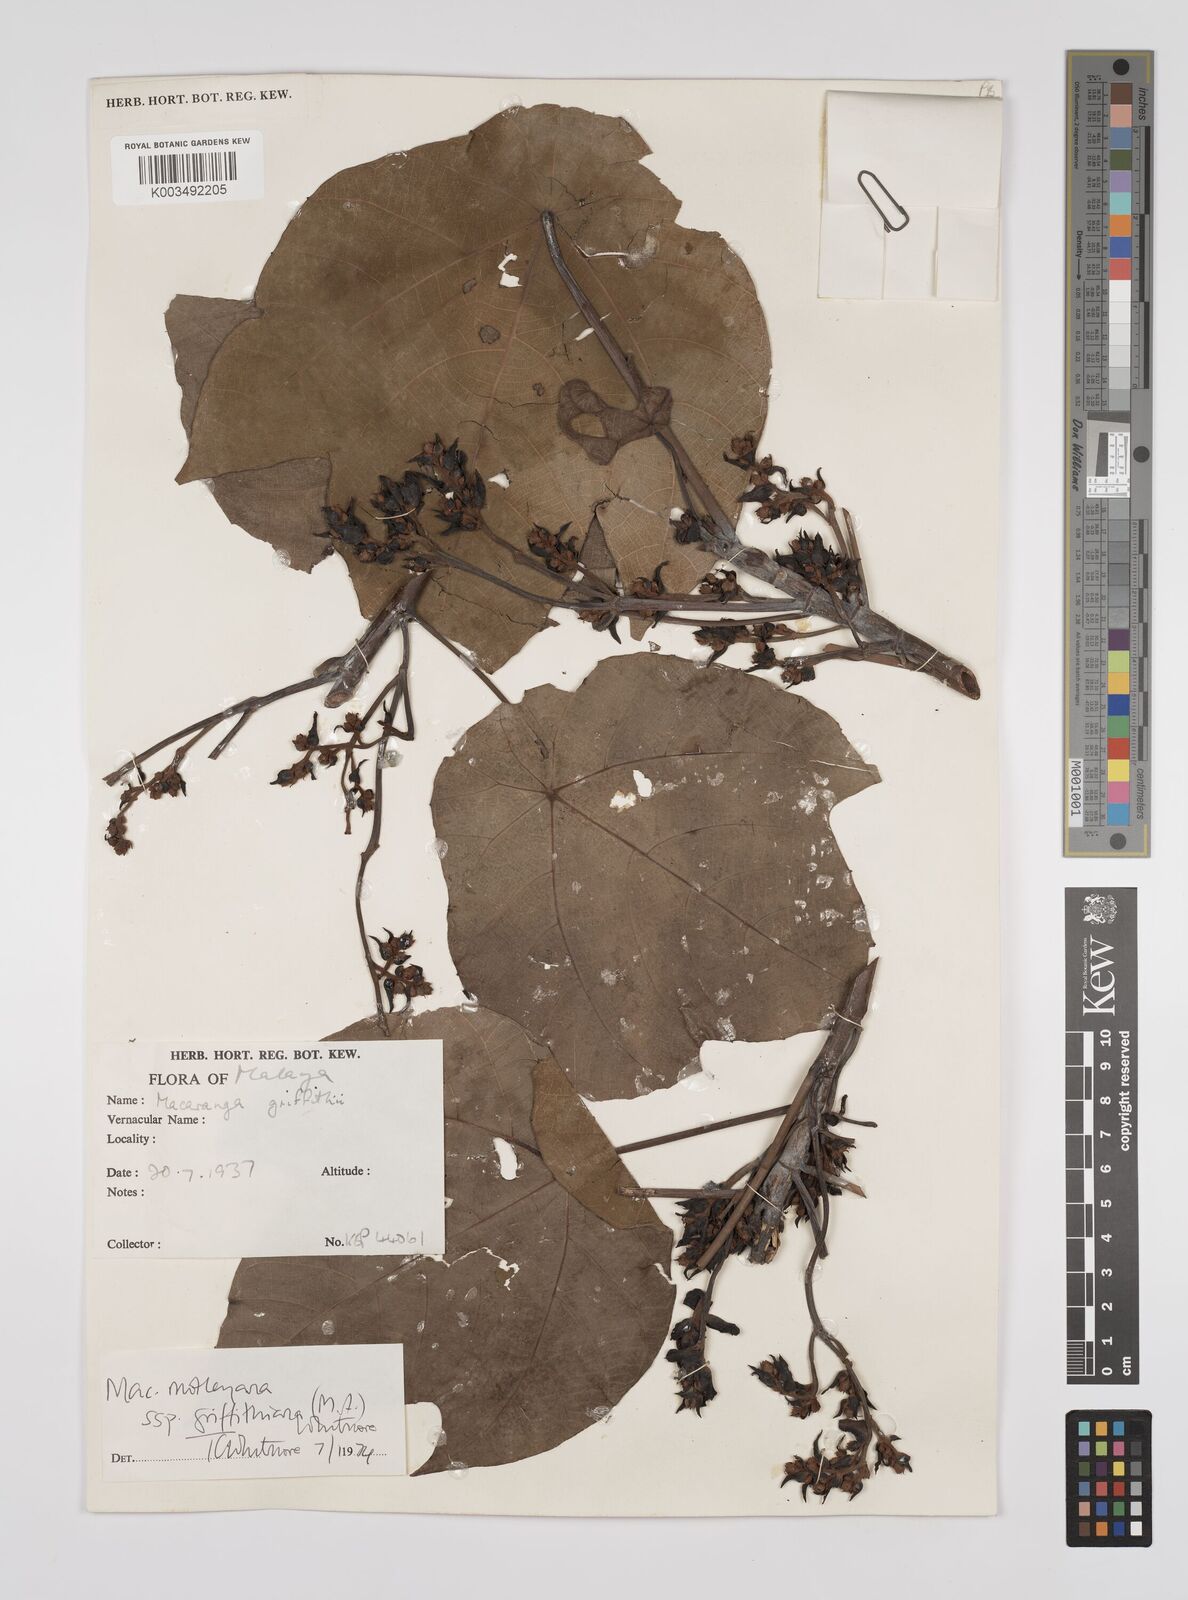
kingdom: Plantae
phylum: Tracheophyta
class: Magnoliopsida
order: Malpighiales
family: Euphorbiaceae
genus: Macaranga
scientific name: Macaranga griffithiana
